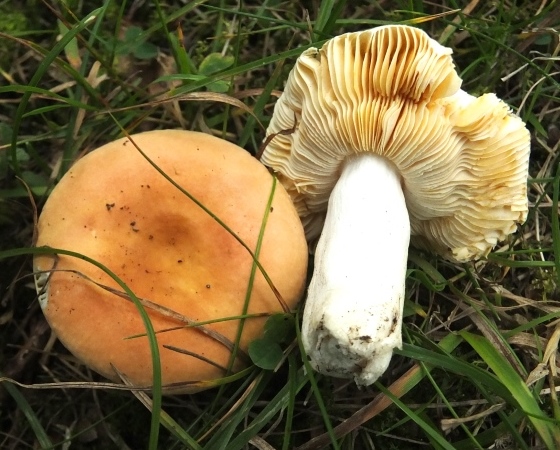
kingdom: Fungi
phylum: Basidiomycota
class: Agaricomycetes
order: Russulales
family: Russulaceae
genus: Russula
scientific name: Russula risigallina
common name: abrikos-skørhat
